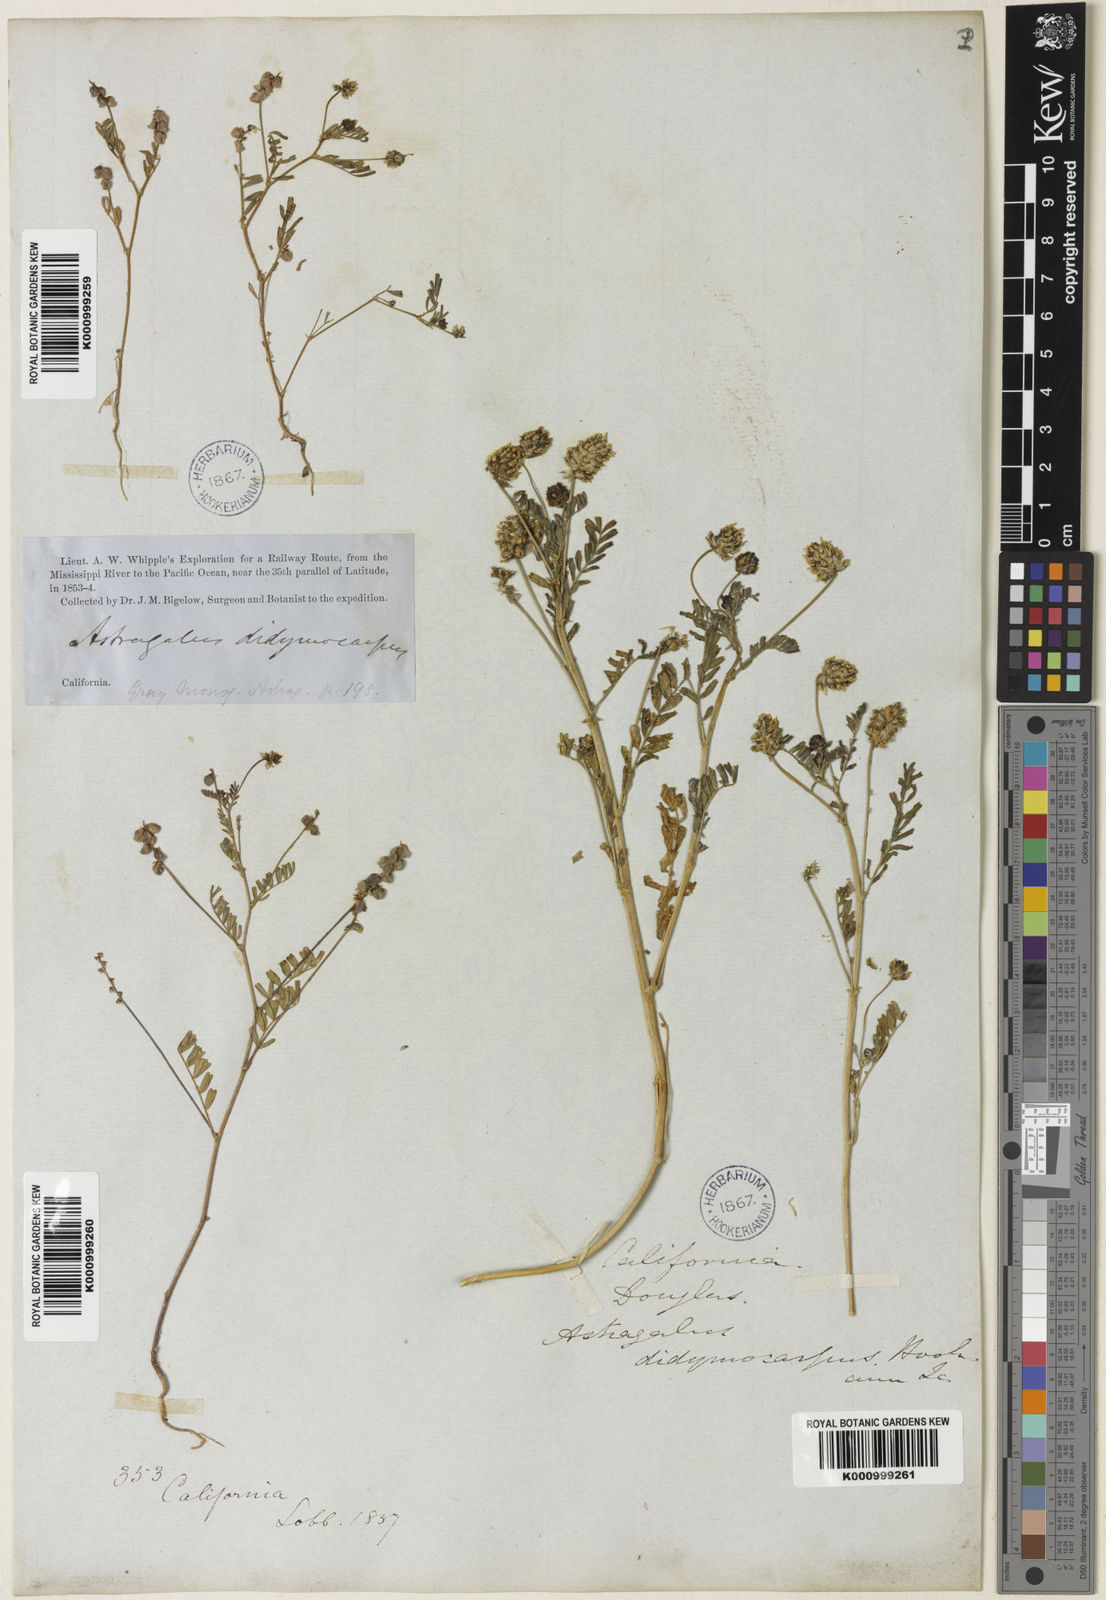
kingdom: Plantae
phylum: Tracheophyta
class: Magnoliopsida
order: Fabales
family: Fabaceae
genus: Astragalus
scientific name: Astragalus didymocarpus
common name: Dwarf white milkvetch
